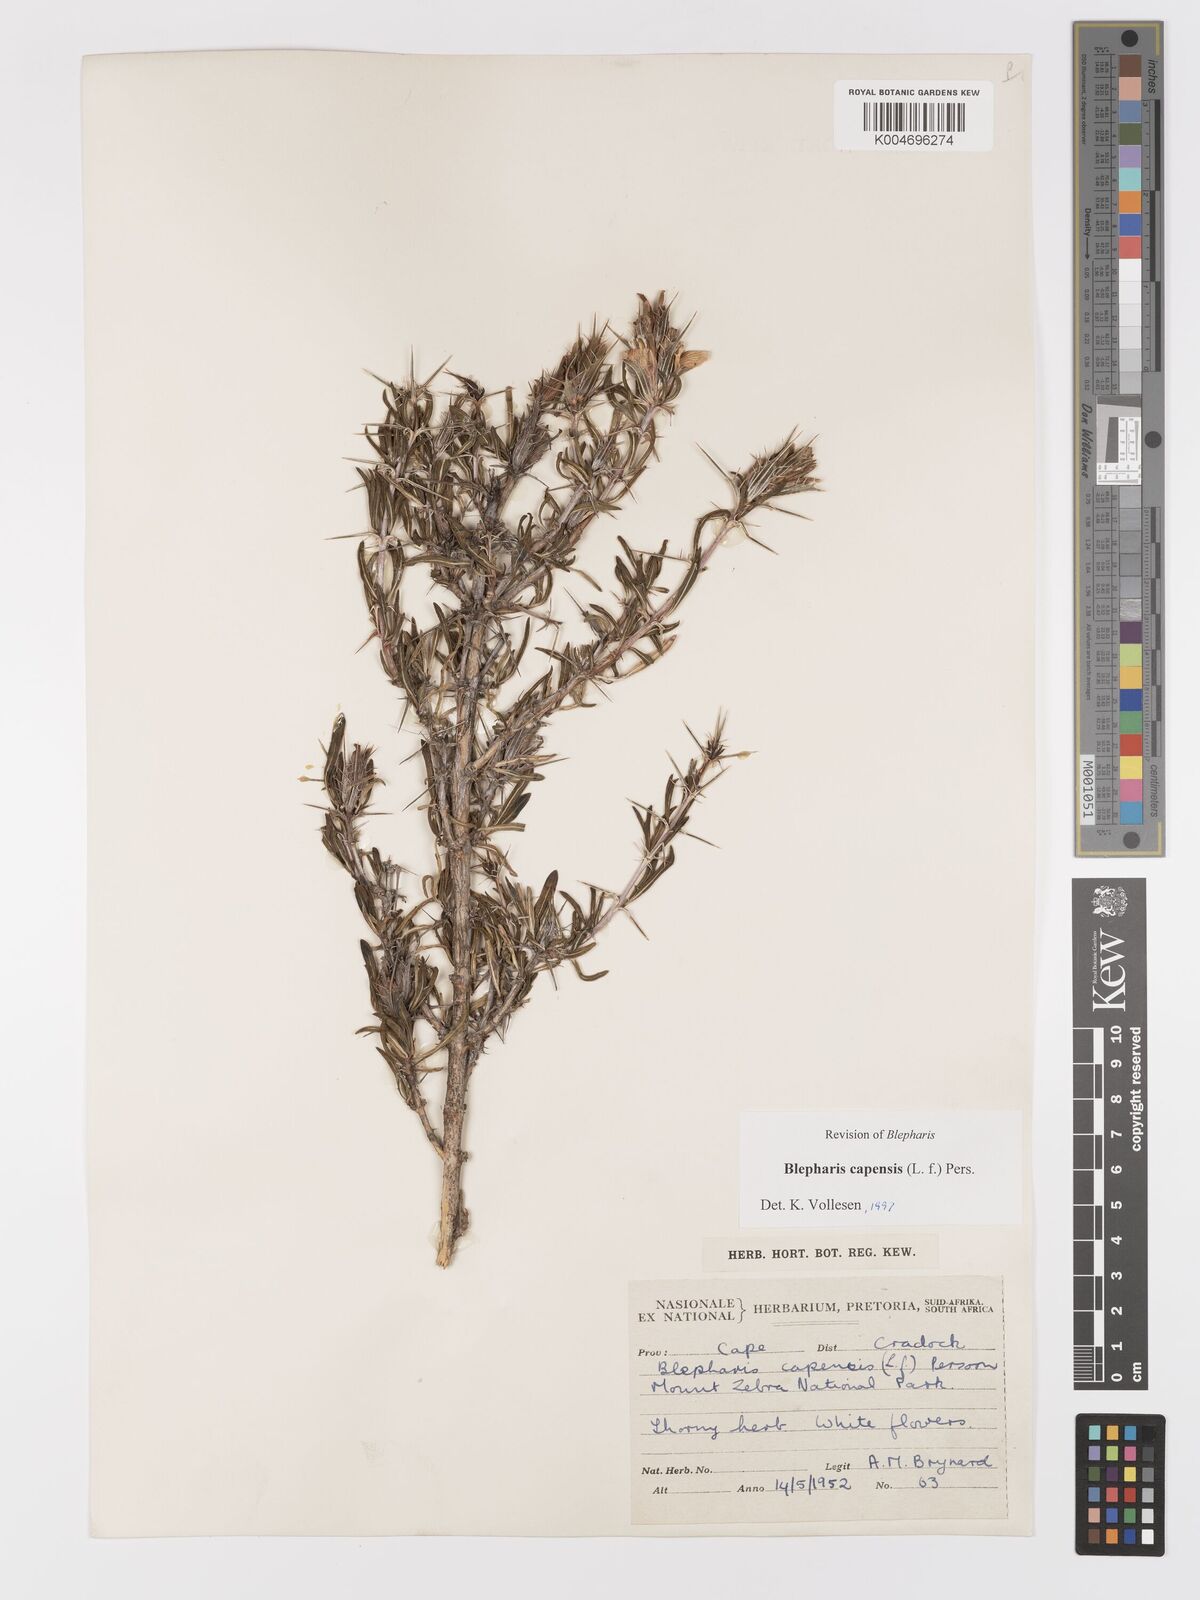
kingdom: Plantae
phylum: Tracheophyta
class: Magnoliopsida
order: Lamiales
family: Acanthaceae
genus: Blepharis
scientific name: Blepharis capensis
